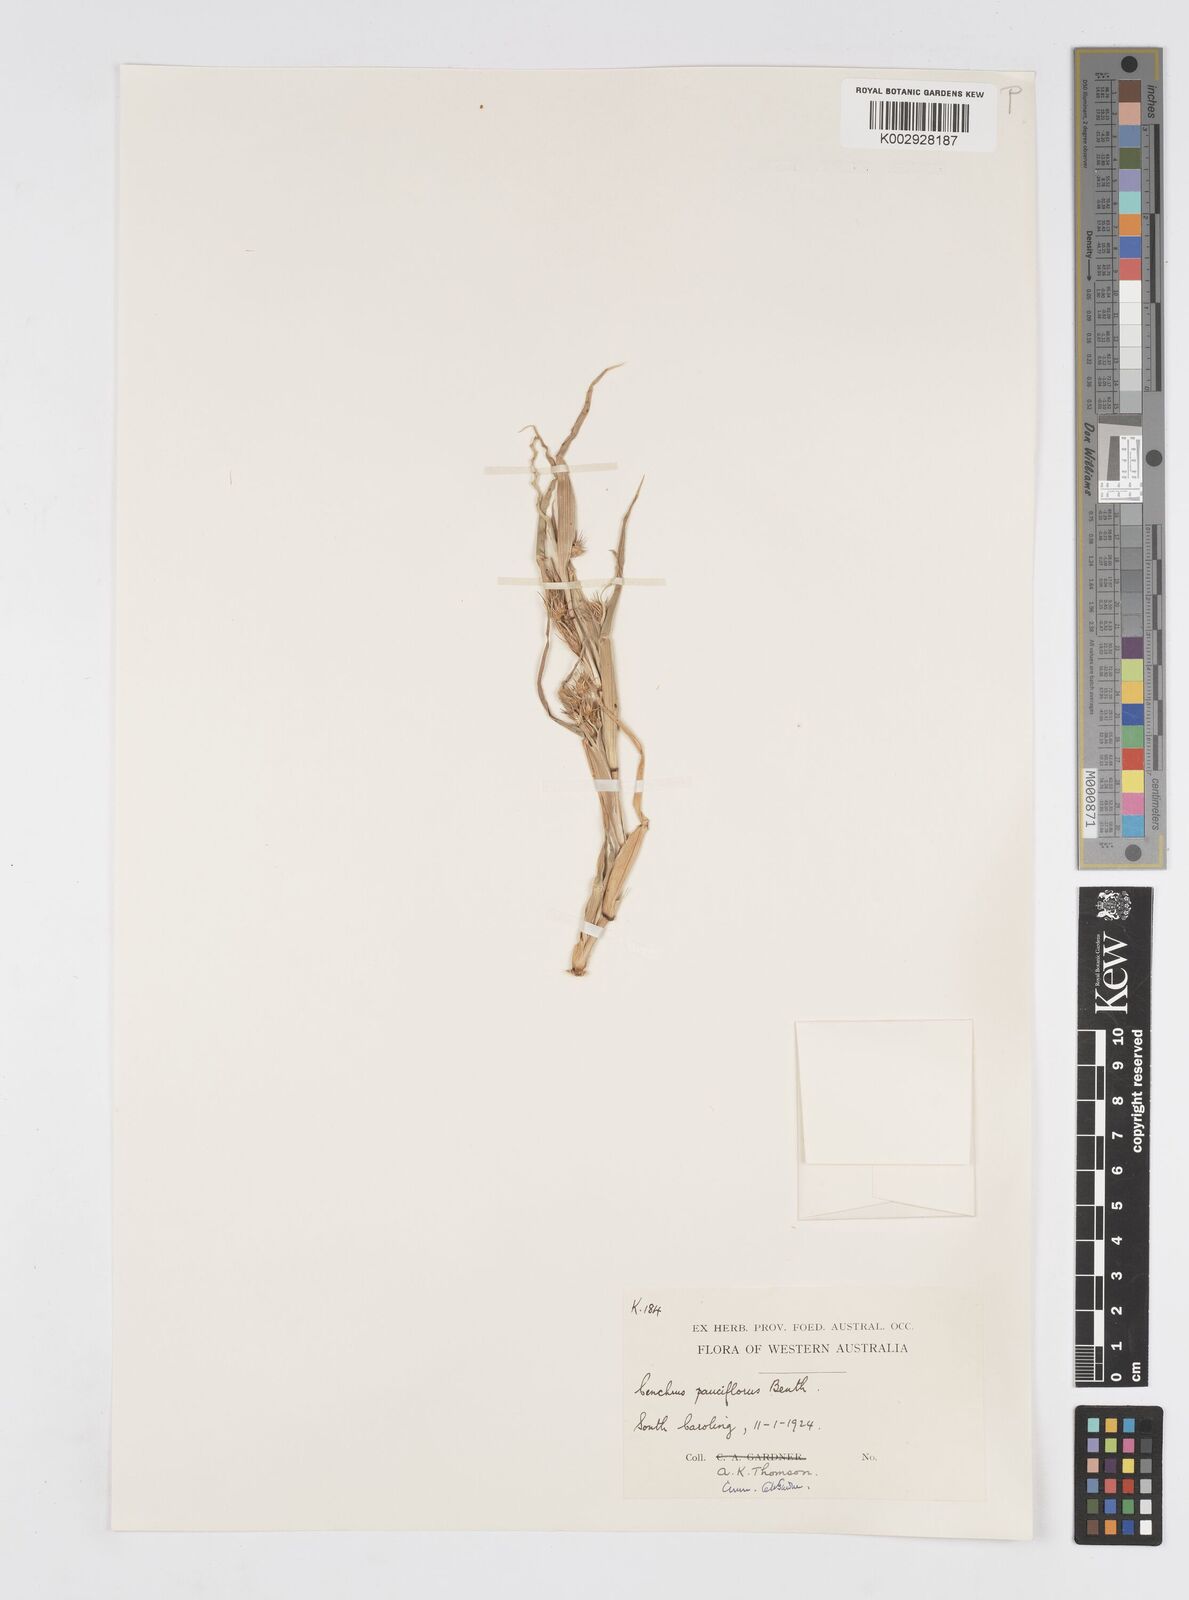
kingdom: Plantae
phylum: Tracheophyta
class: Liliopsida
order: Poales
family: Poaceae
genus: Cenchrus
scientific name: Cenchrus longispinus
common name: Mat sandbur
